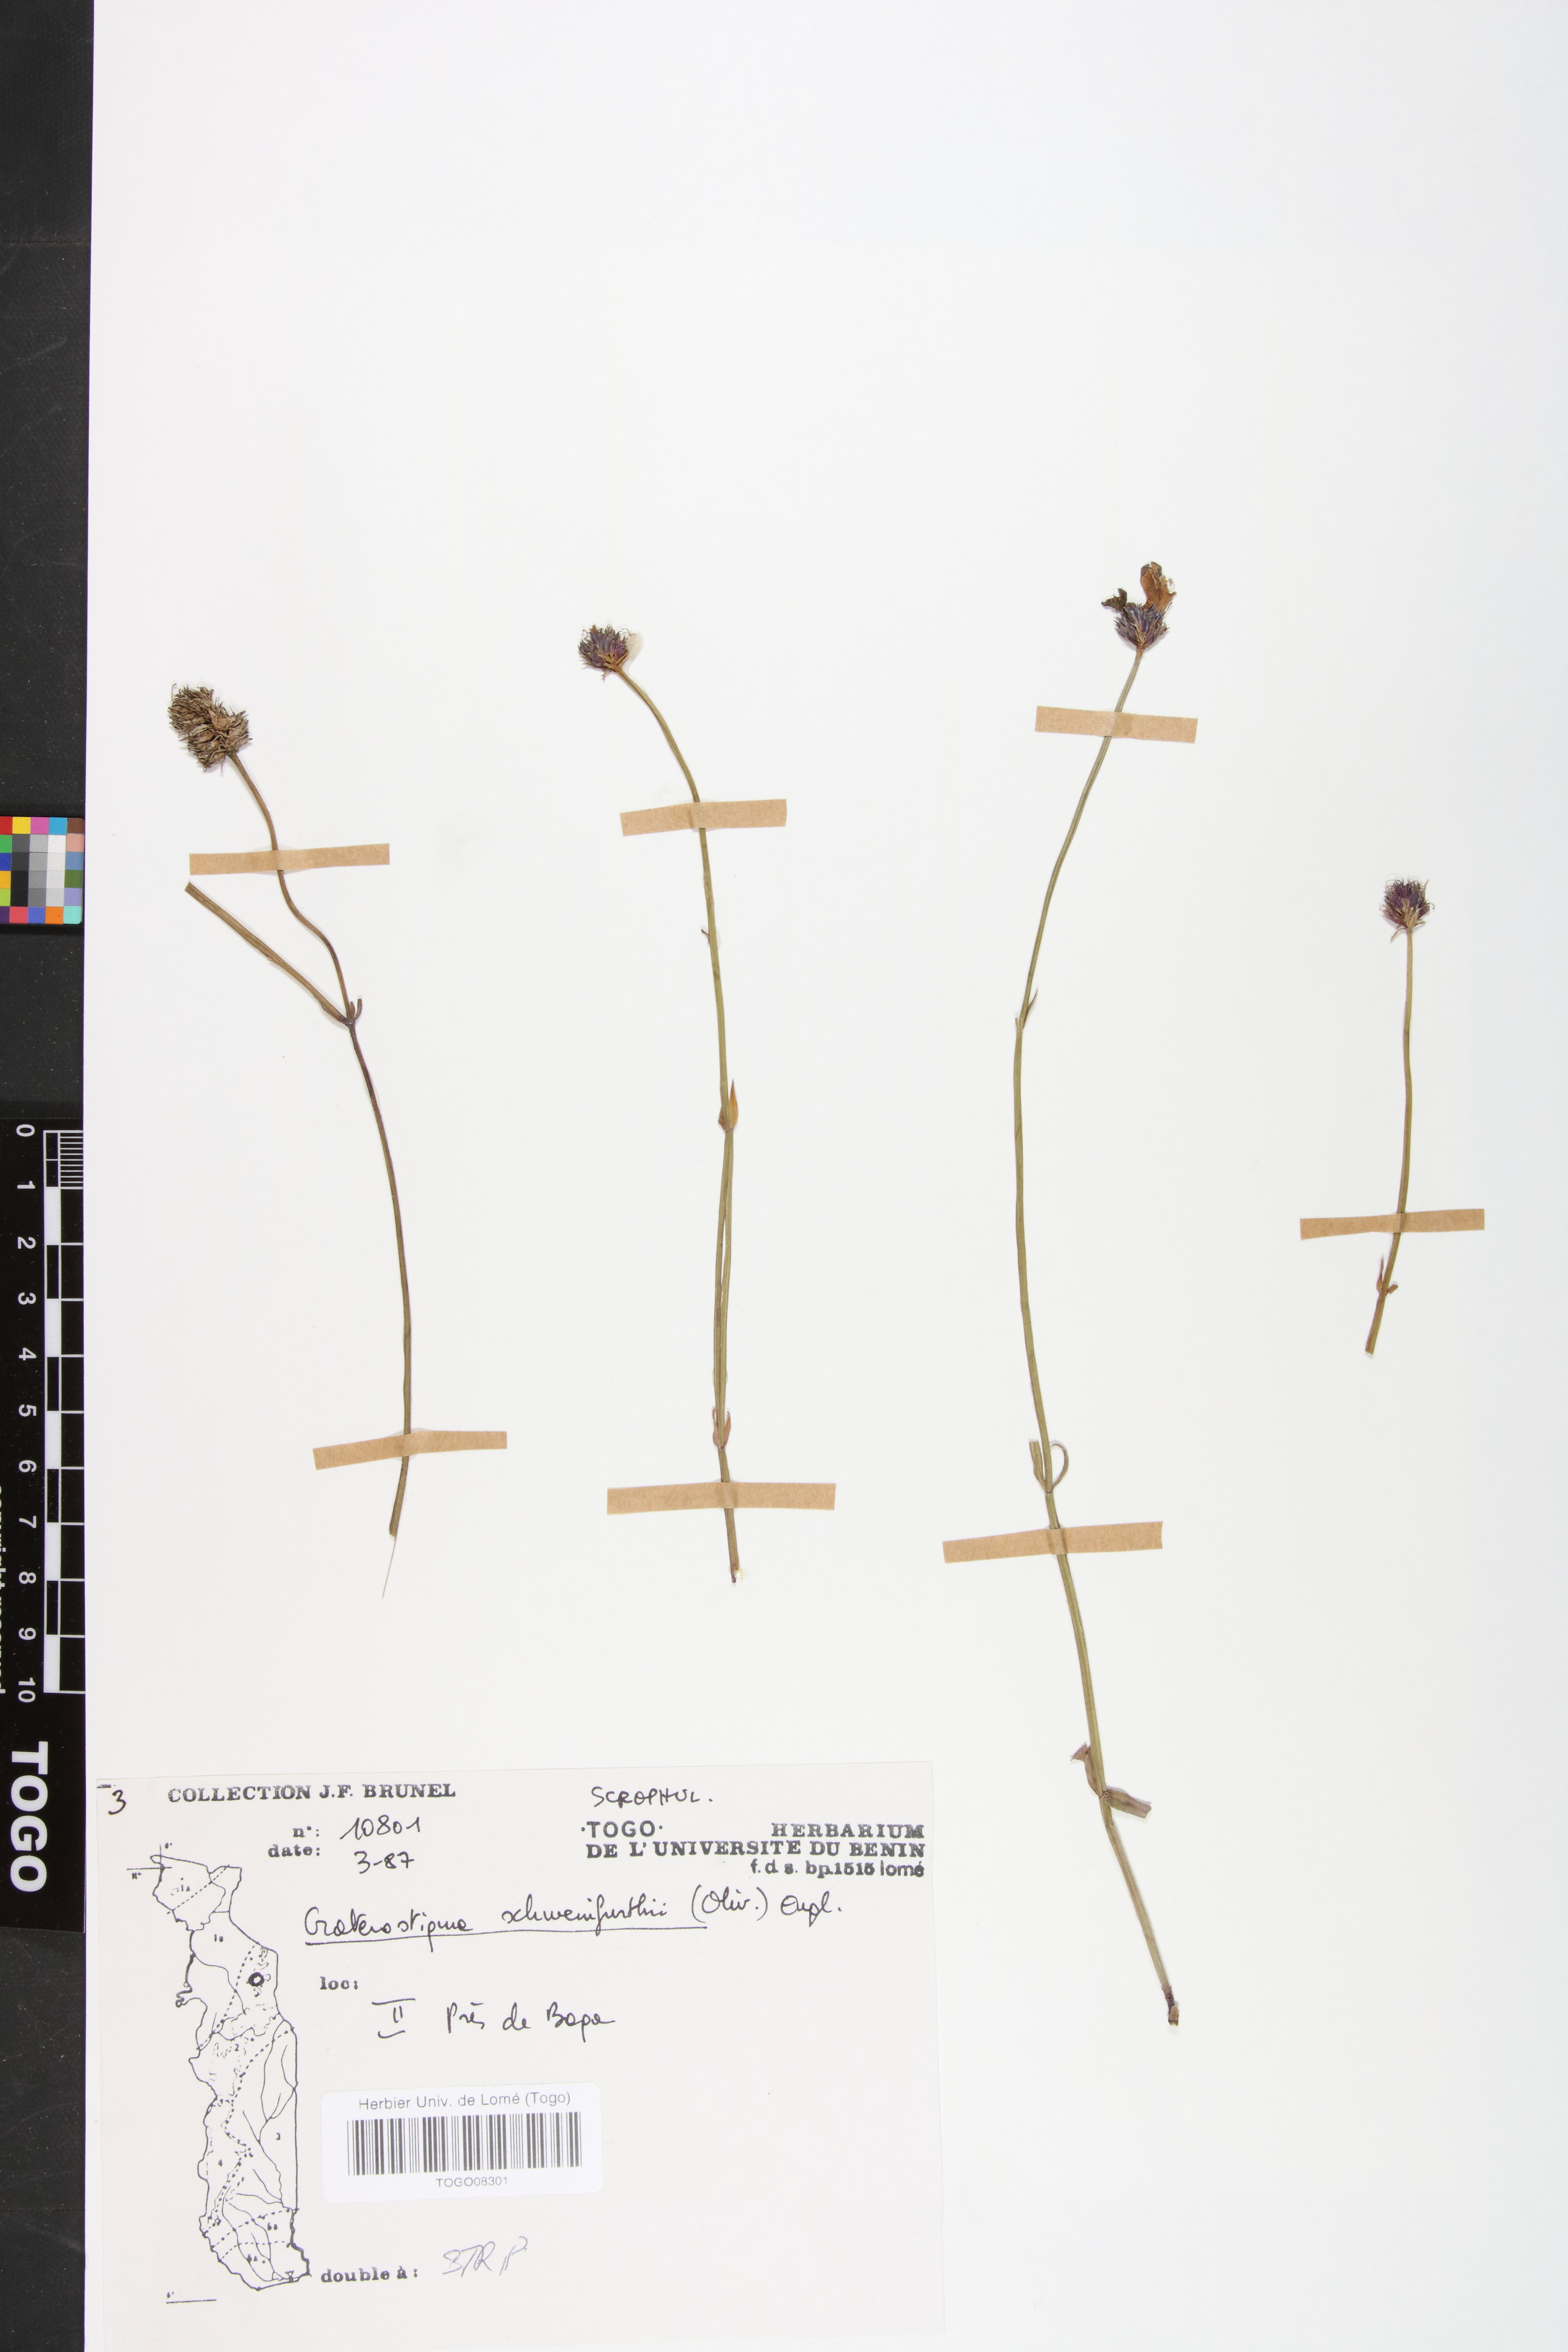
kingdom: Plantae
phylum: Tracheophyta
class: Magnoliopsida
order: Lamiales
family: Linderniaceae
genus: Crepidorhopalon
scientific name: Crepidorhopalon schweinfurthii
